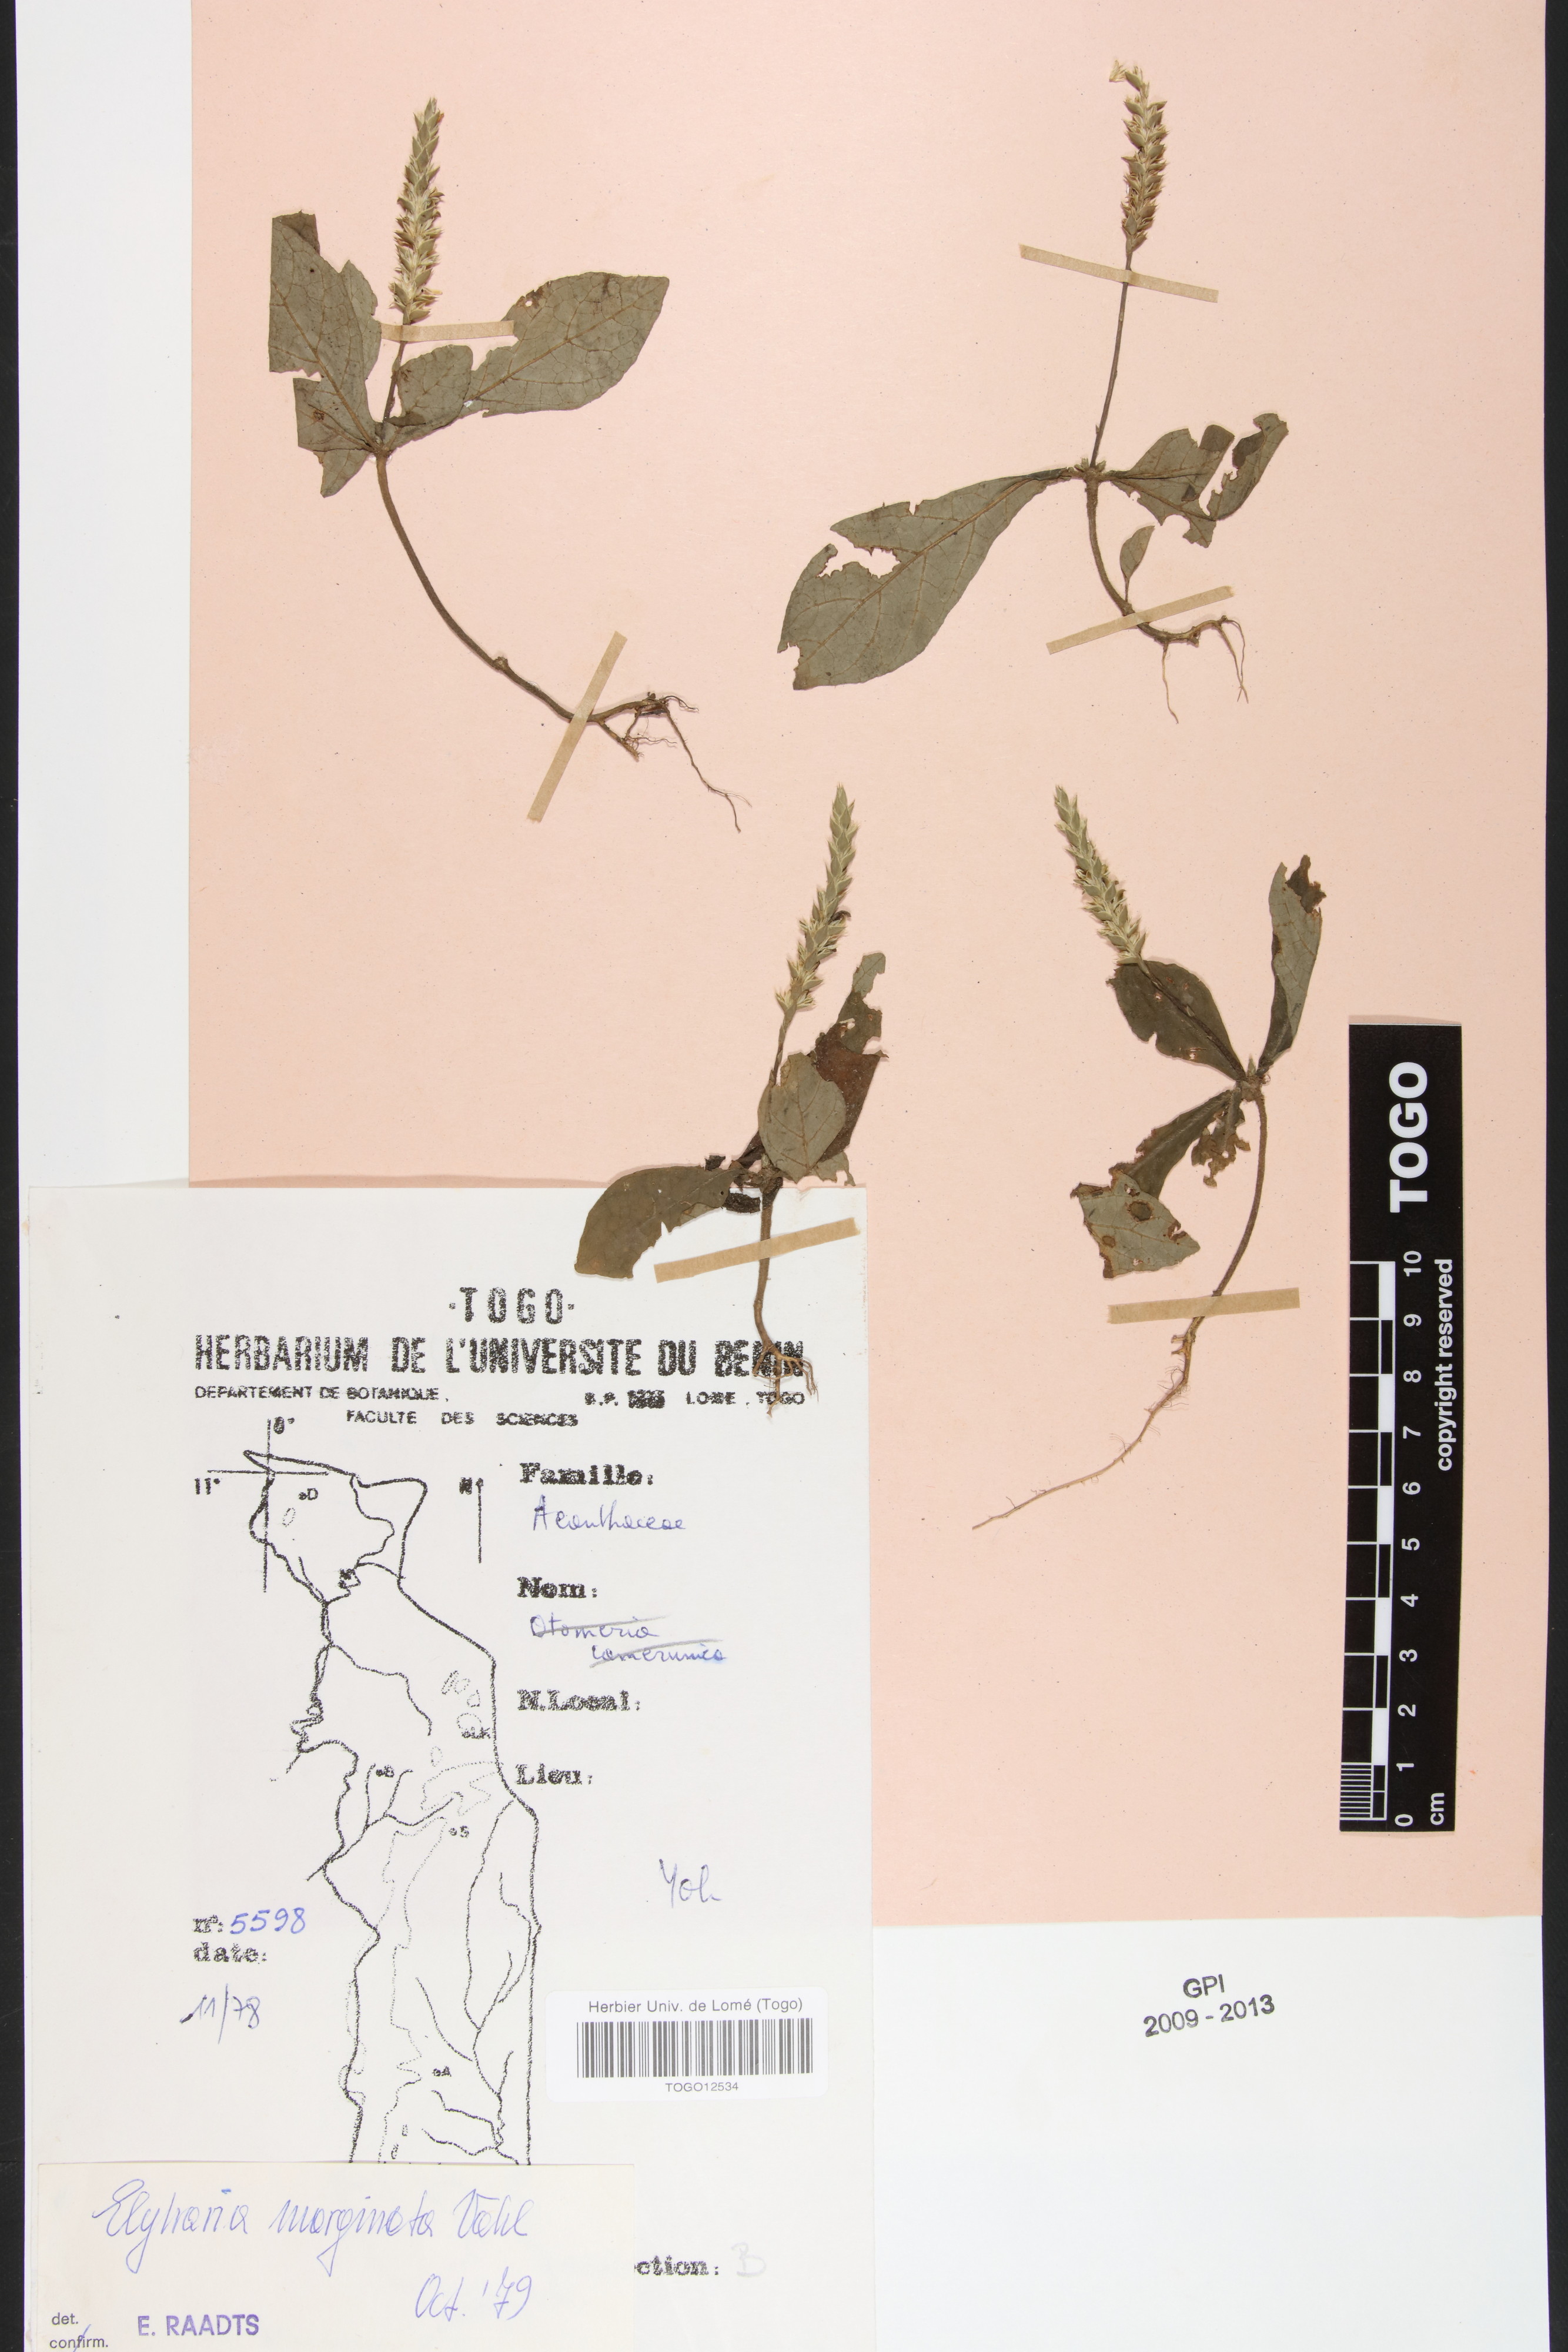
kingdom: Plantae
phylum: Tracheophyta
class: Magnoliopsida
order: Lamiales
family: Acanthaceae
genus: Elytraria
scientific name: Elytraria marginata
